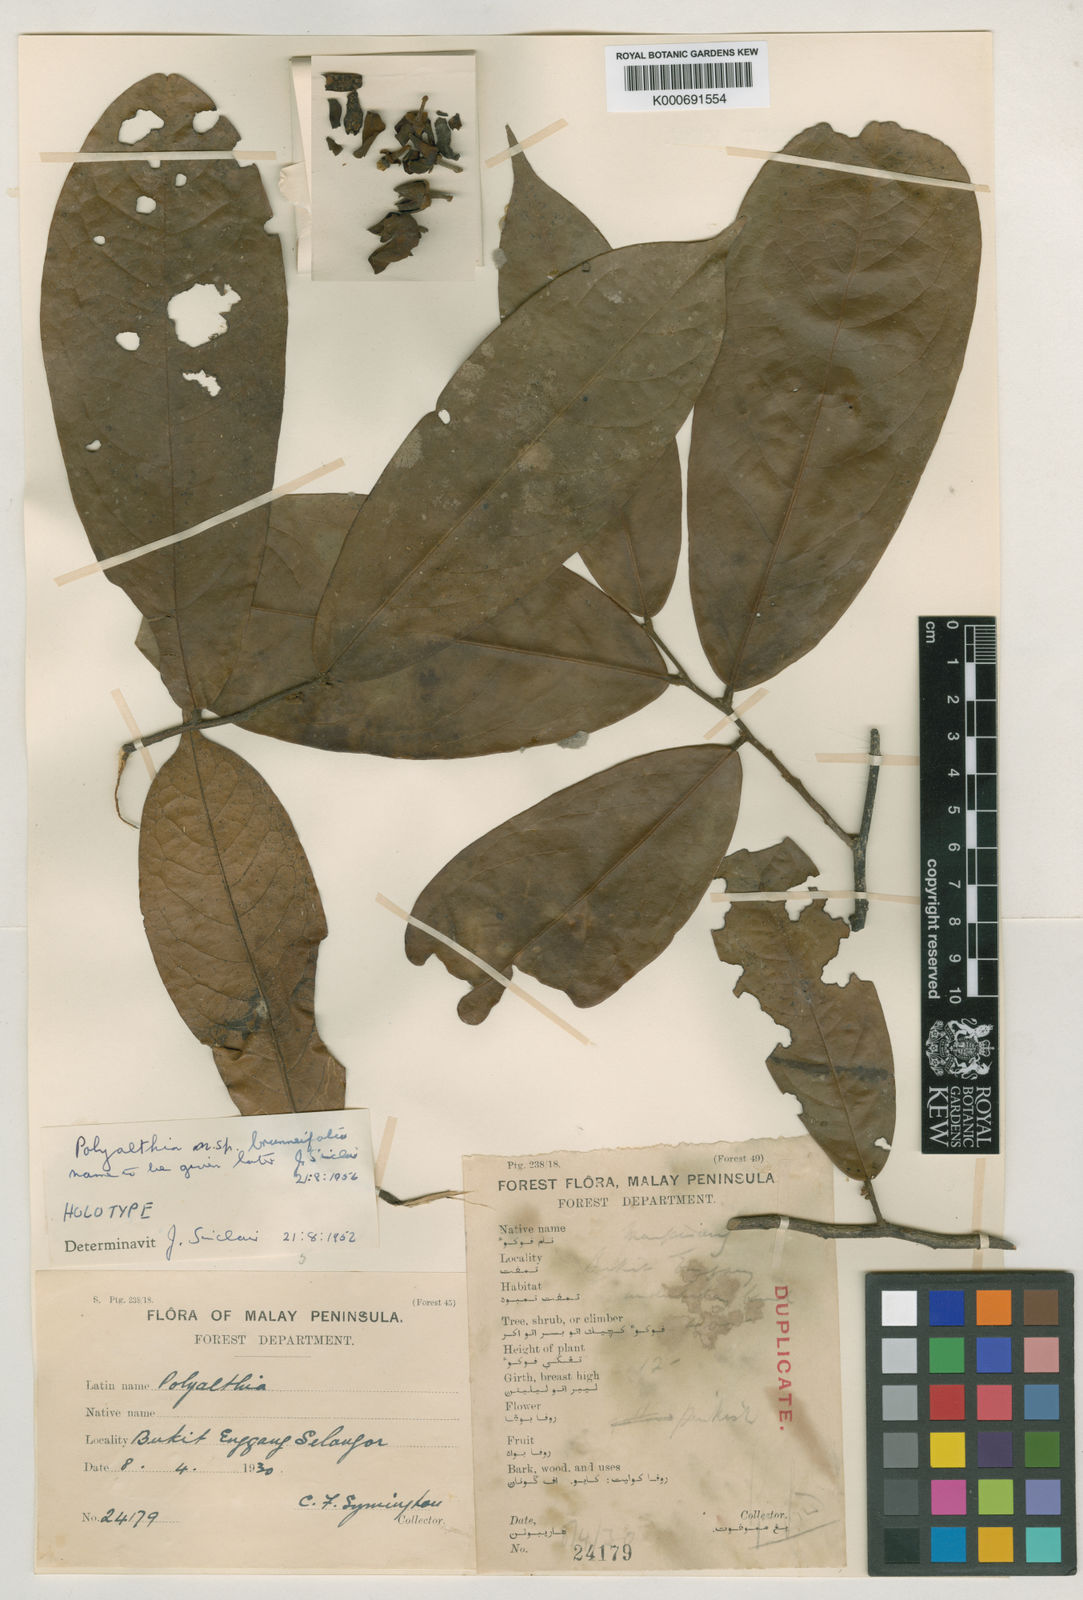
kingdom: Plantae
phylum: Tracheophyta
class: Magnoliopsida
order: Magnoliales
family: Annonaceae
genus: Polyalthia
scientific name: Polyalthia brunneifolia
